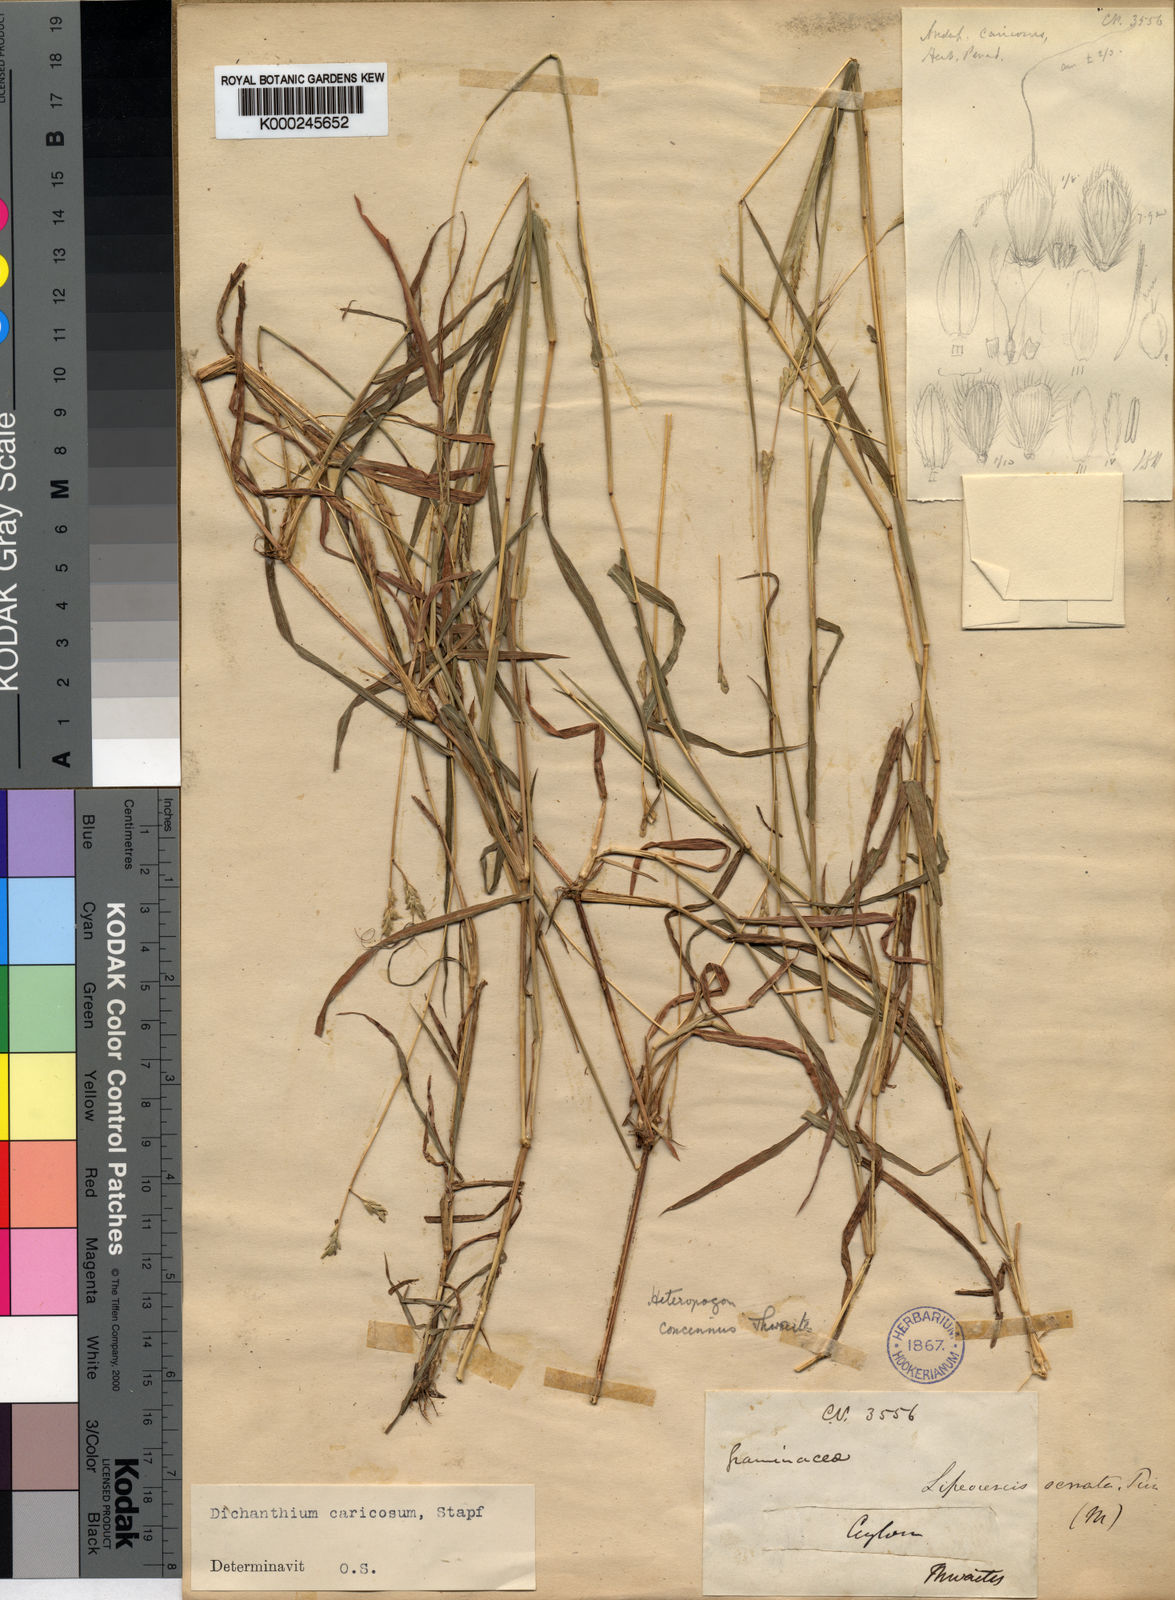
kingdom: Plantae
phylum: Tracheophyta
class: Liliopsida
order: Poales
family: Poaceae
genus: Dichanthium
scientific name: Dichanthium caricosum
